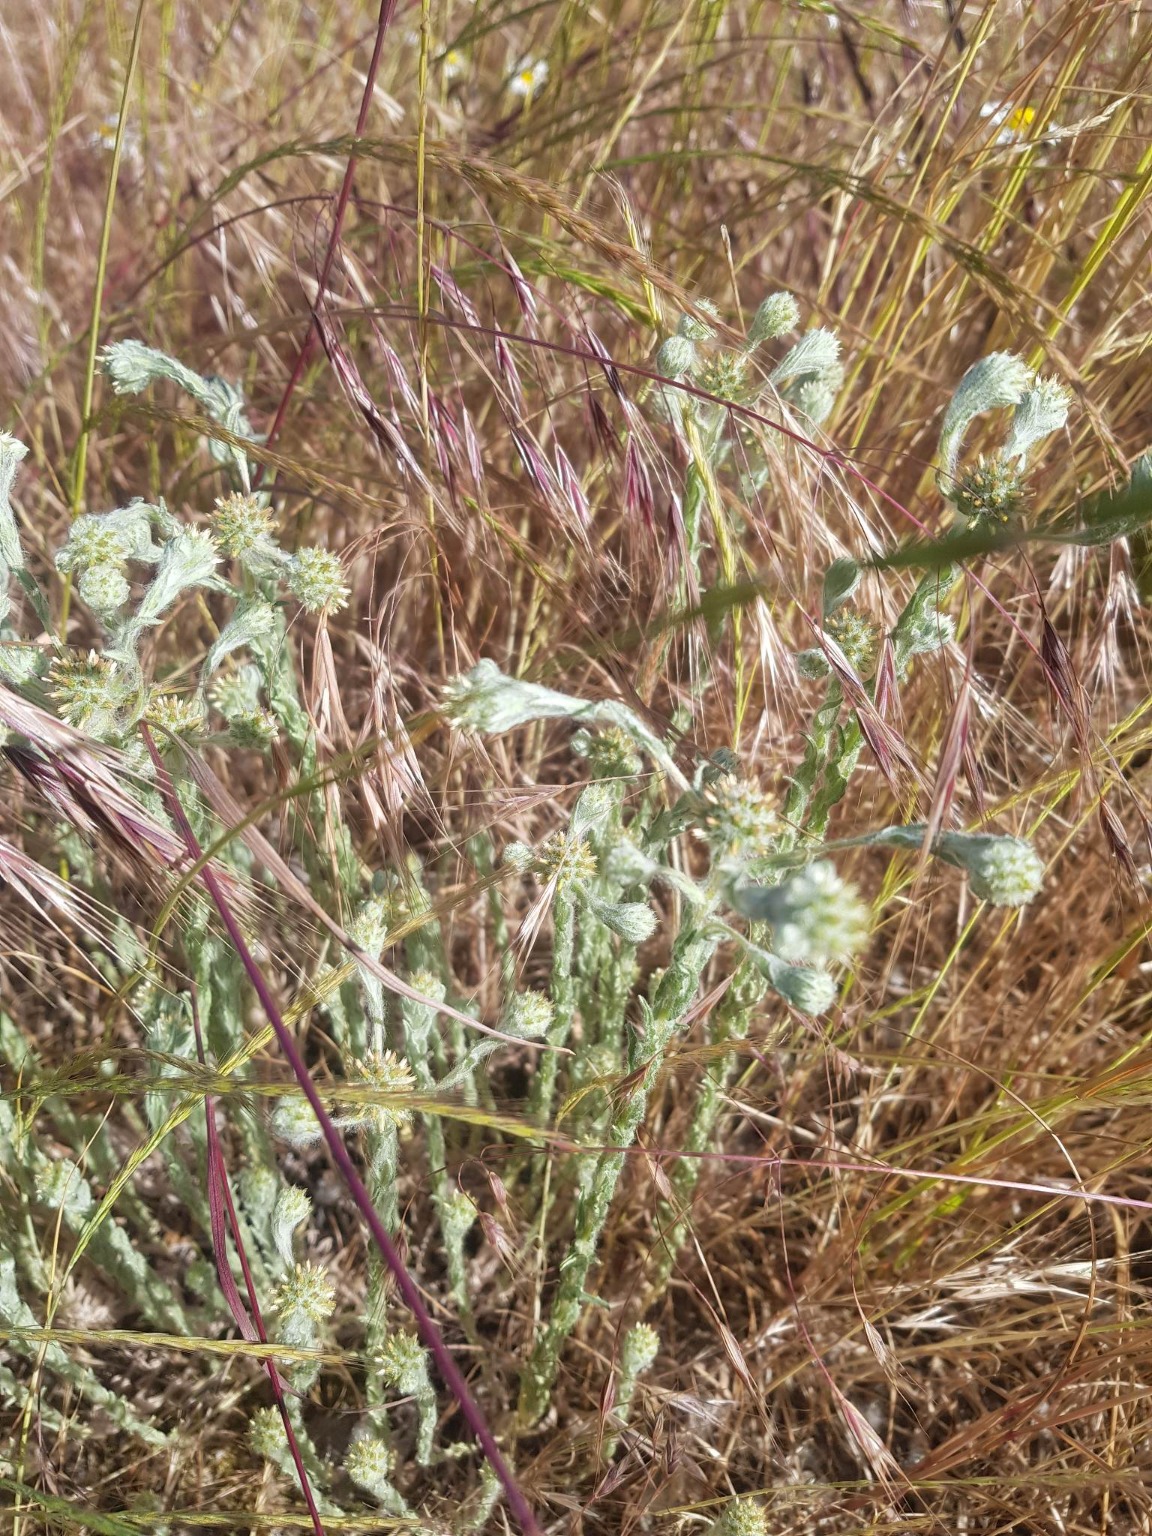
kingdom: Plantae
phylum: Tracheophyta
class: Magnoliopsida
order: Asterales
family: Asteraceae
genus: Filago
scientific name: Filago germanica
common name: Kugle-museurt
